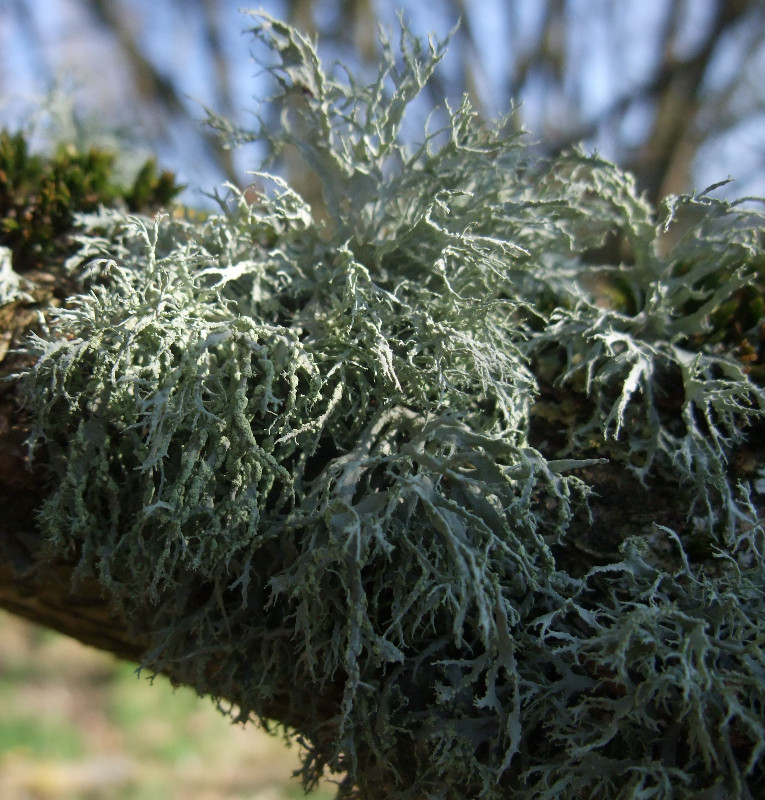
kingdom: Fungi
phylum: Ascomycota
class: Lecanoromycetes
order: Lecanorales
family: Ramalinaceae
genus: Ramalina
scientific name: Ramalina farinacea
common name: melet grenlav
